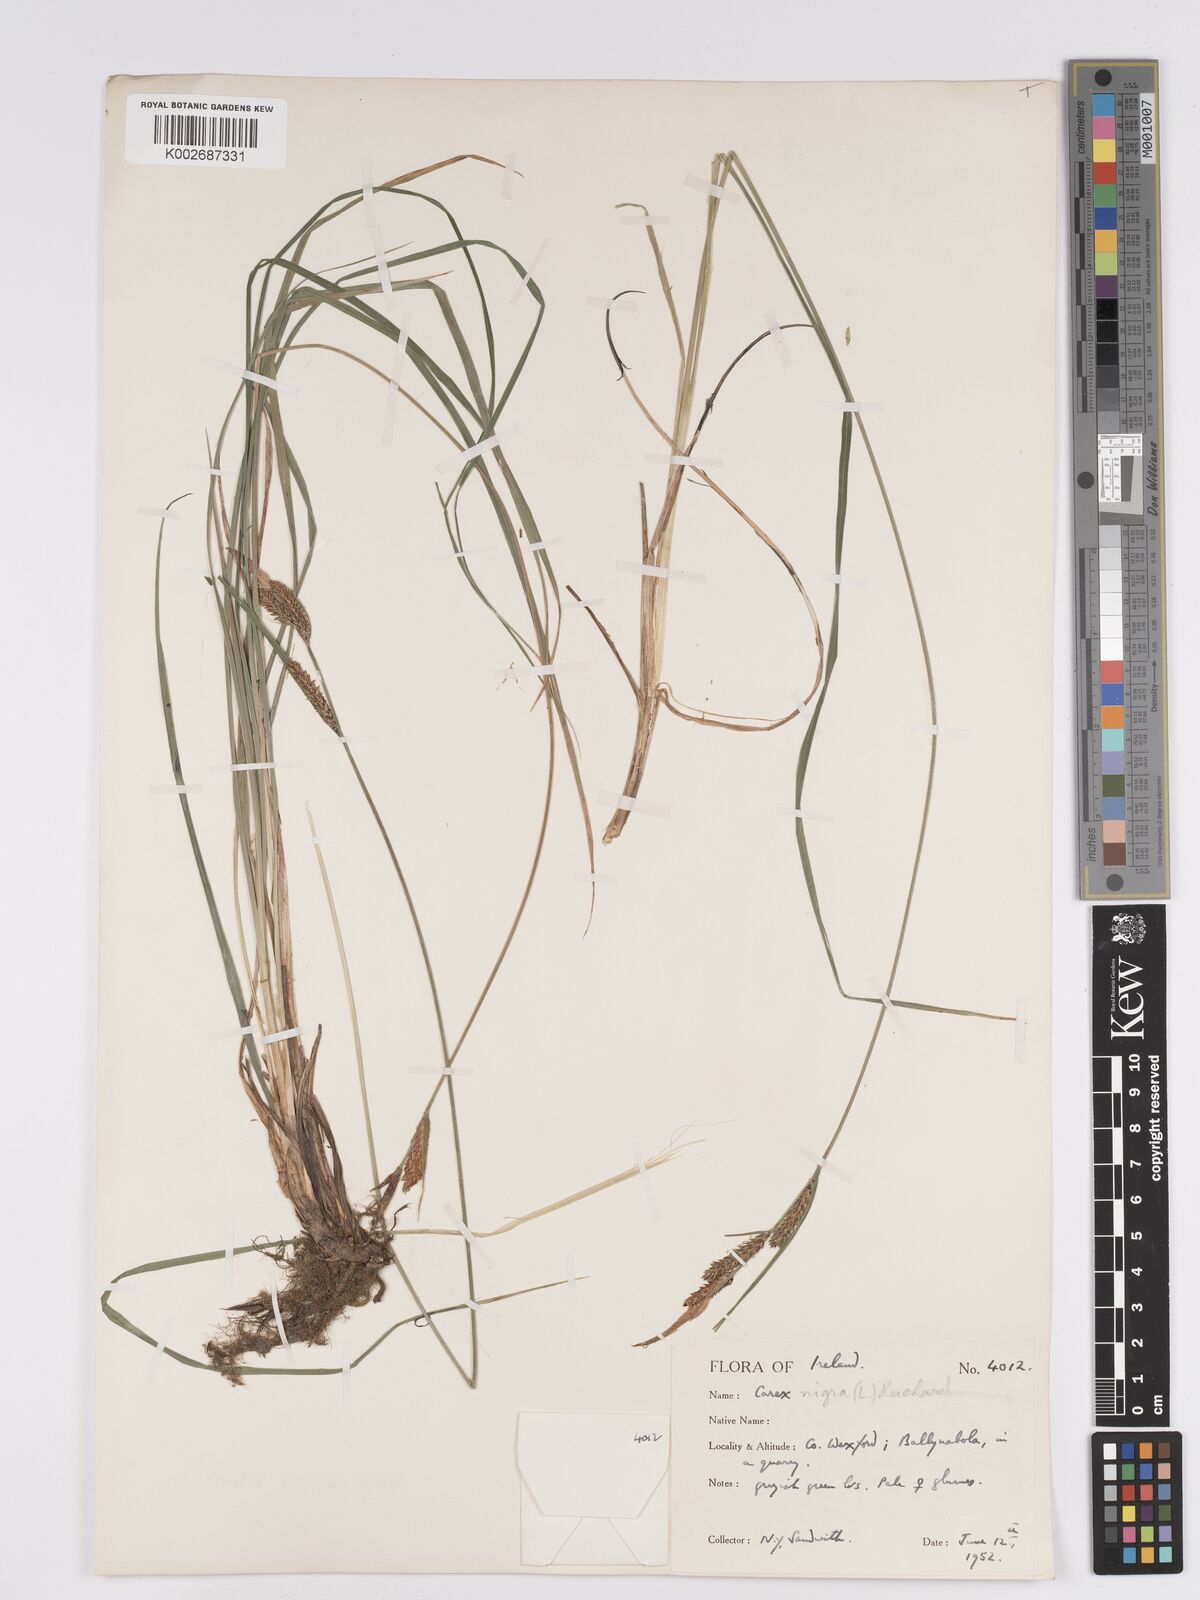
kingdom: Plantae
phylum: Tracheophyta
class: Liliopsida
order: Poales
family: Cyperaceae
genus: Carex
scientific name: Carex nigra
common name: Common sedge
